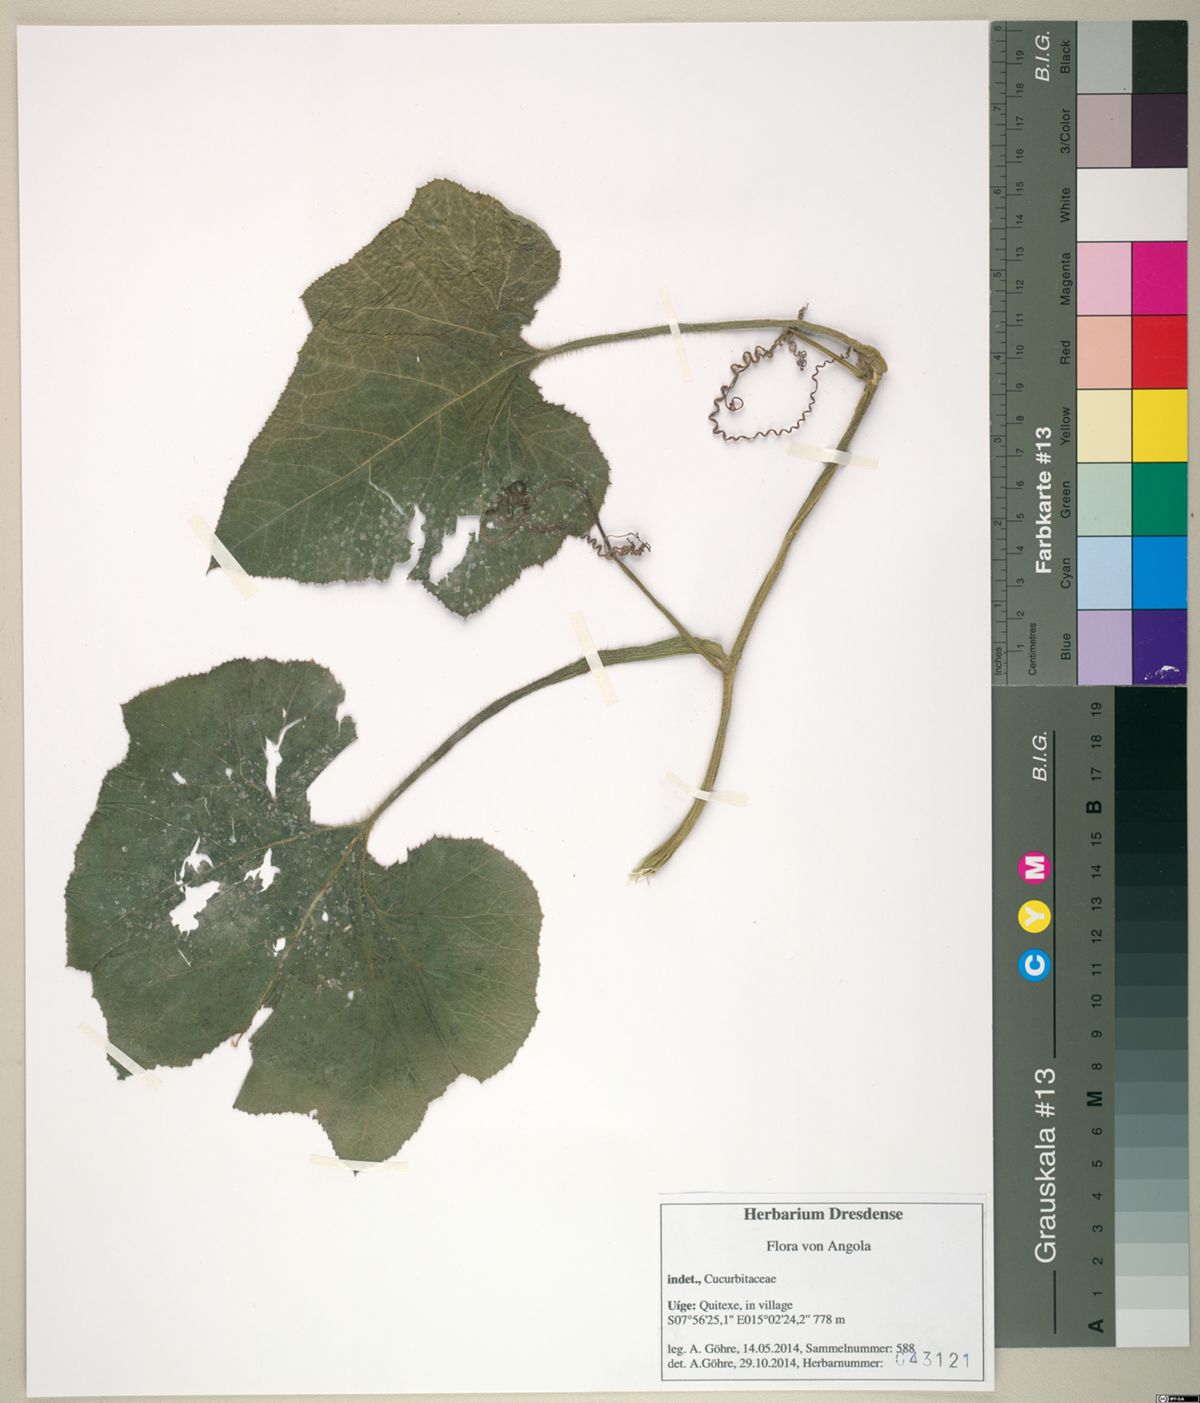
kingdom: Plantae
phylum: Tracheophyta
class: Magnoliopsida
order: Cucurbitales
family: Cucurbitaceae
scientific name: Cucurbitaceae
